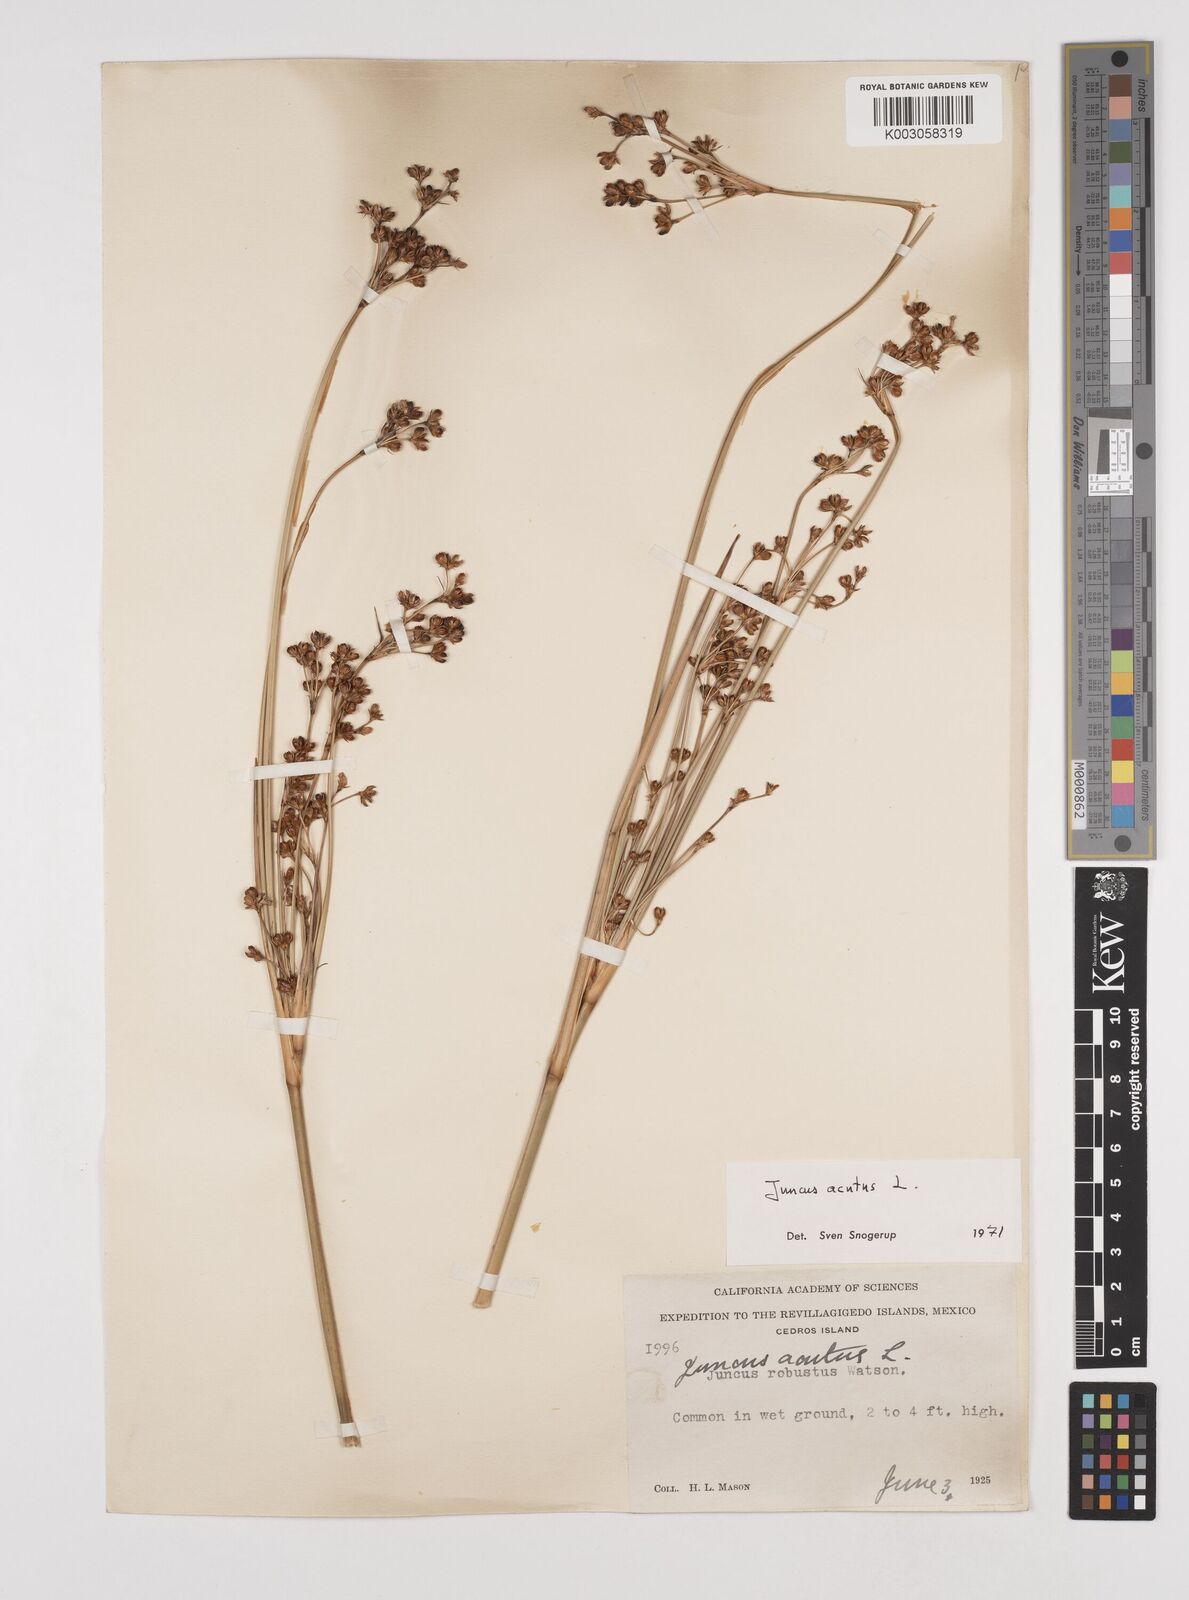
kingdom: Plantae
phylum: Tracheophyta
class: Liliopsida
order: Poales
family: Juncaceae
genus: Juncus
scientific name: Juncus acutus
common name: Sharp rush
